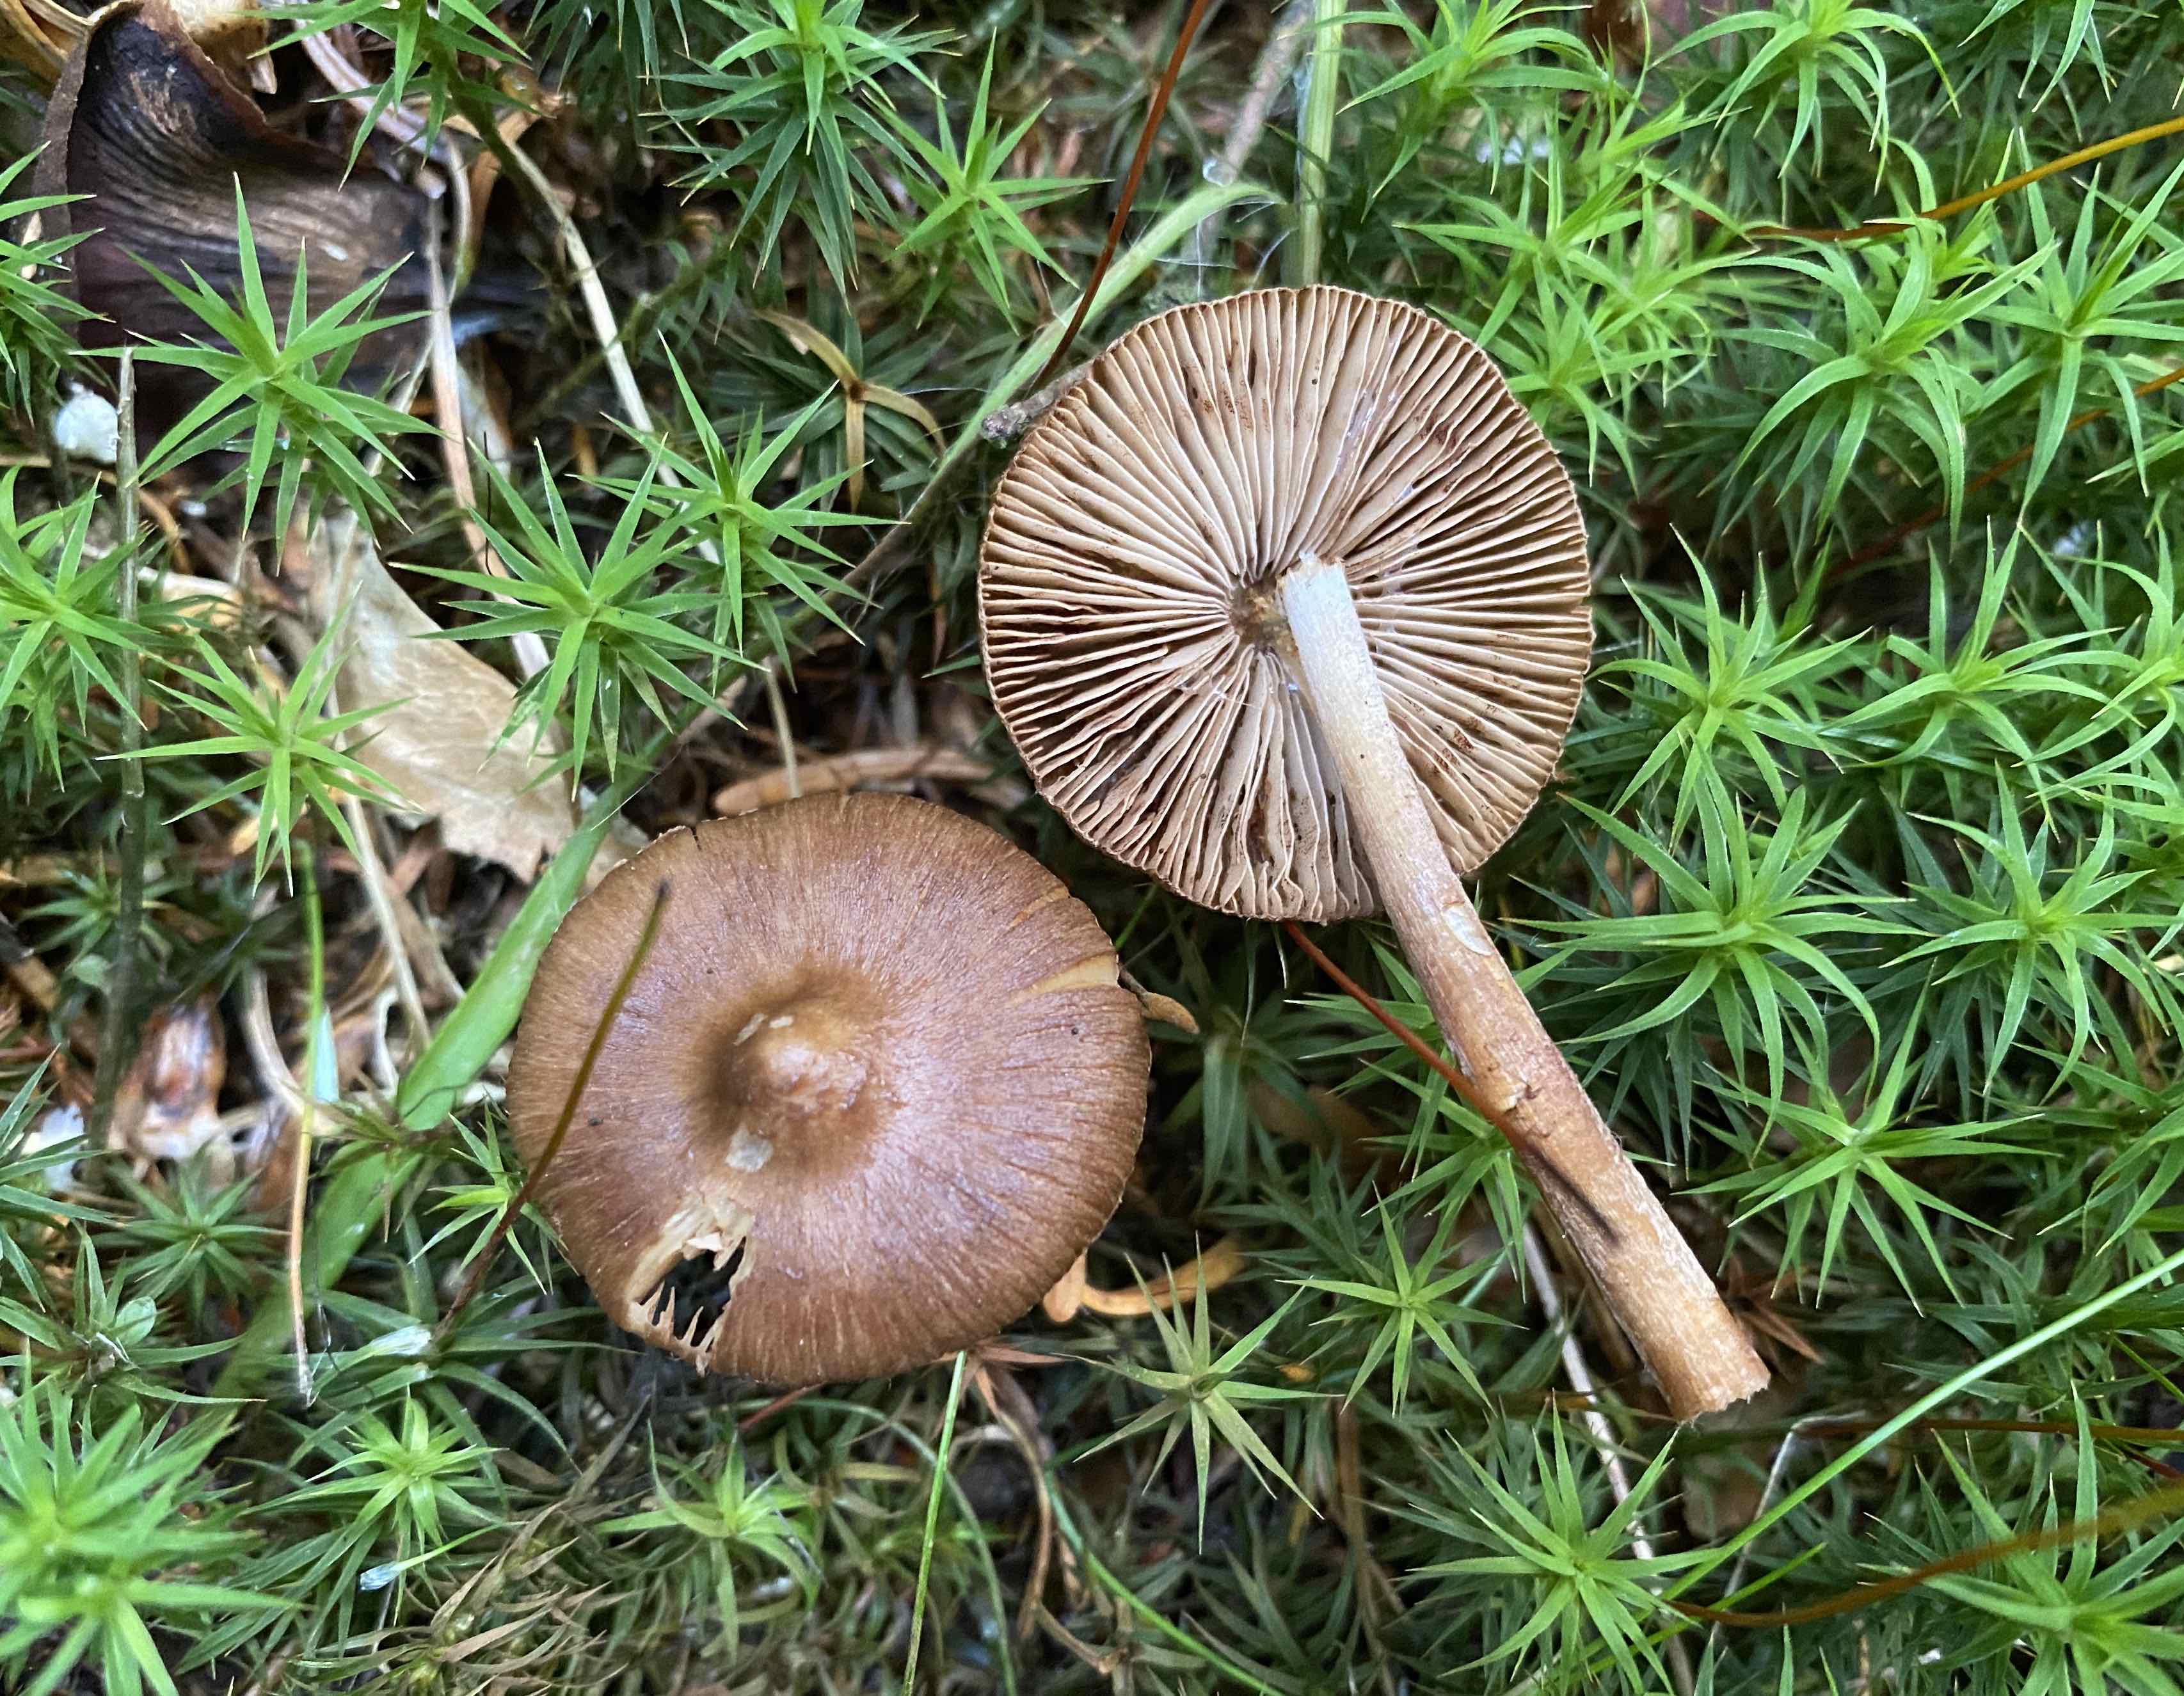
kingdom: Fungi
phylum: Basidiomycota
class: Agaricomycetes
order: Agaricales
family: Inocybaceae
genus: Inocybe
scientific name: Inocybe
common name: trævlhat
